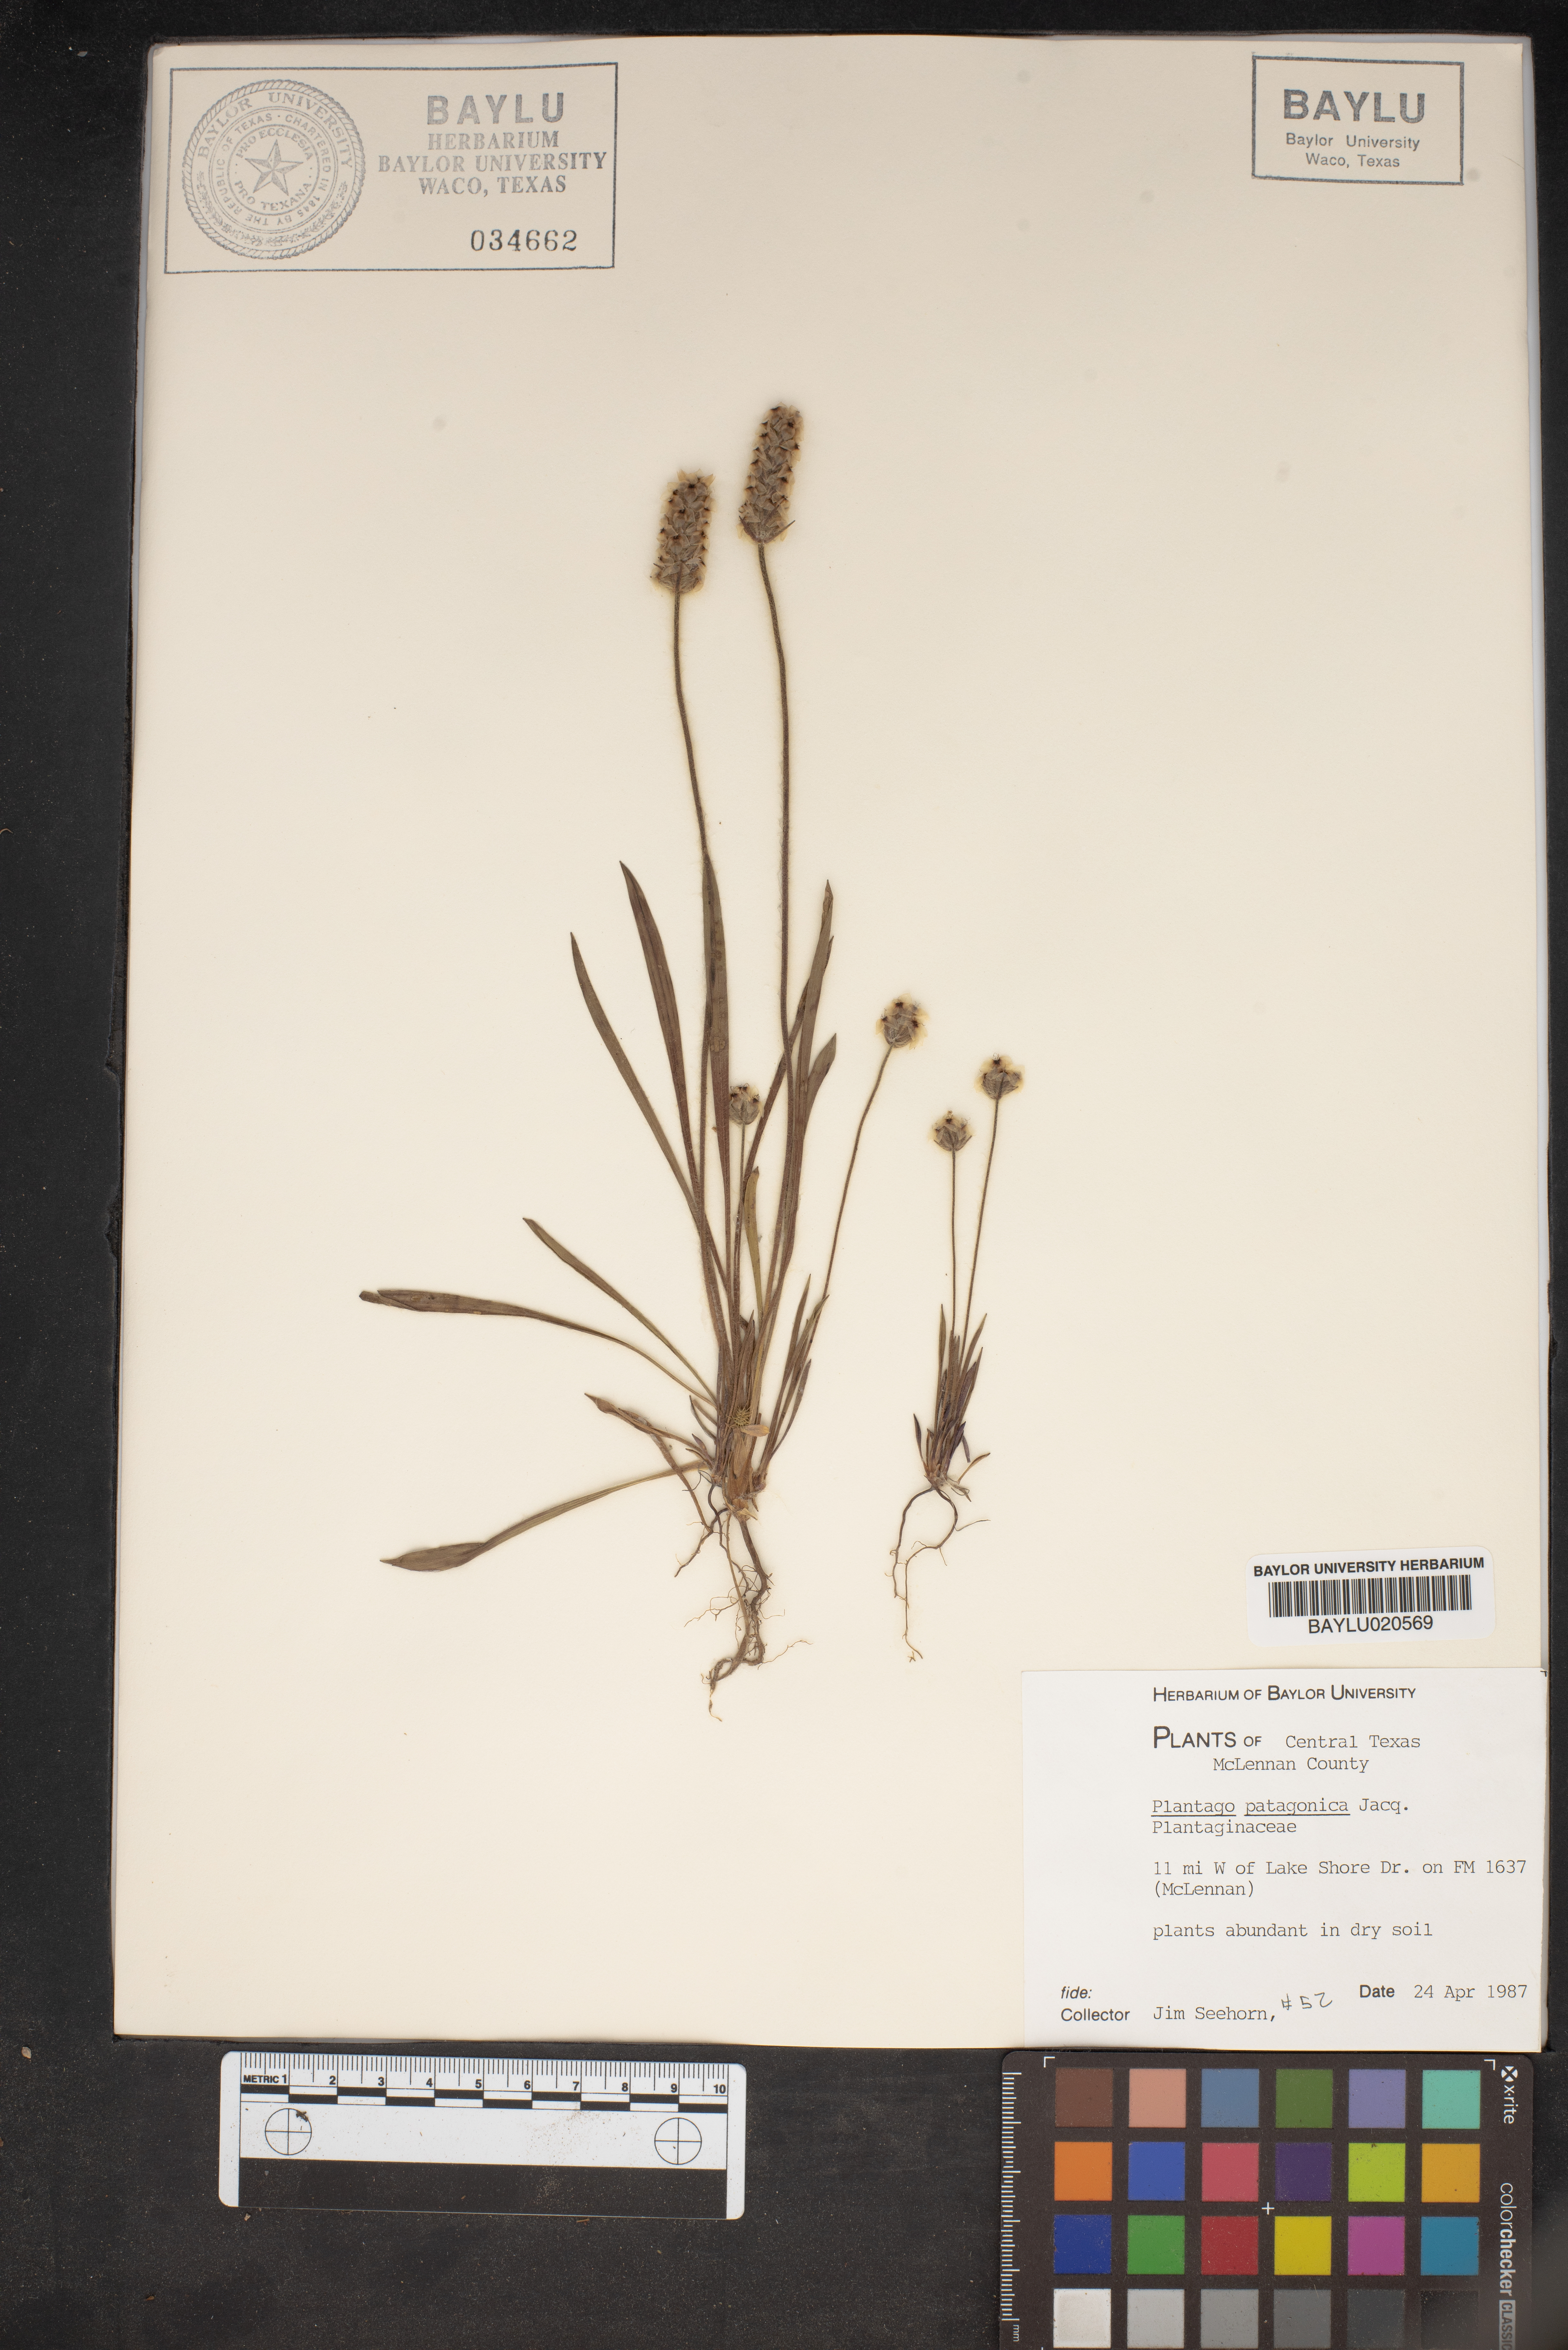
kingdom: Plantae
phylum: Tracheophyta
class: Magnoliopsida
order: Lamiales
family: Plantaginaceae
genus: Plantago
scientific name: Plantago patagonica
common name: Patagonia indian-wheat
